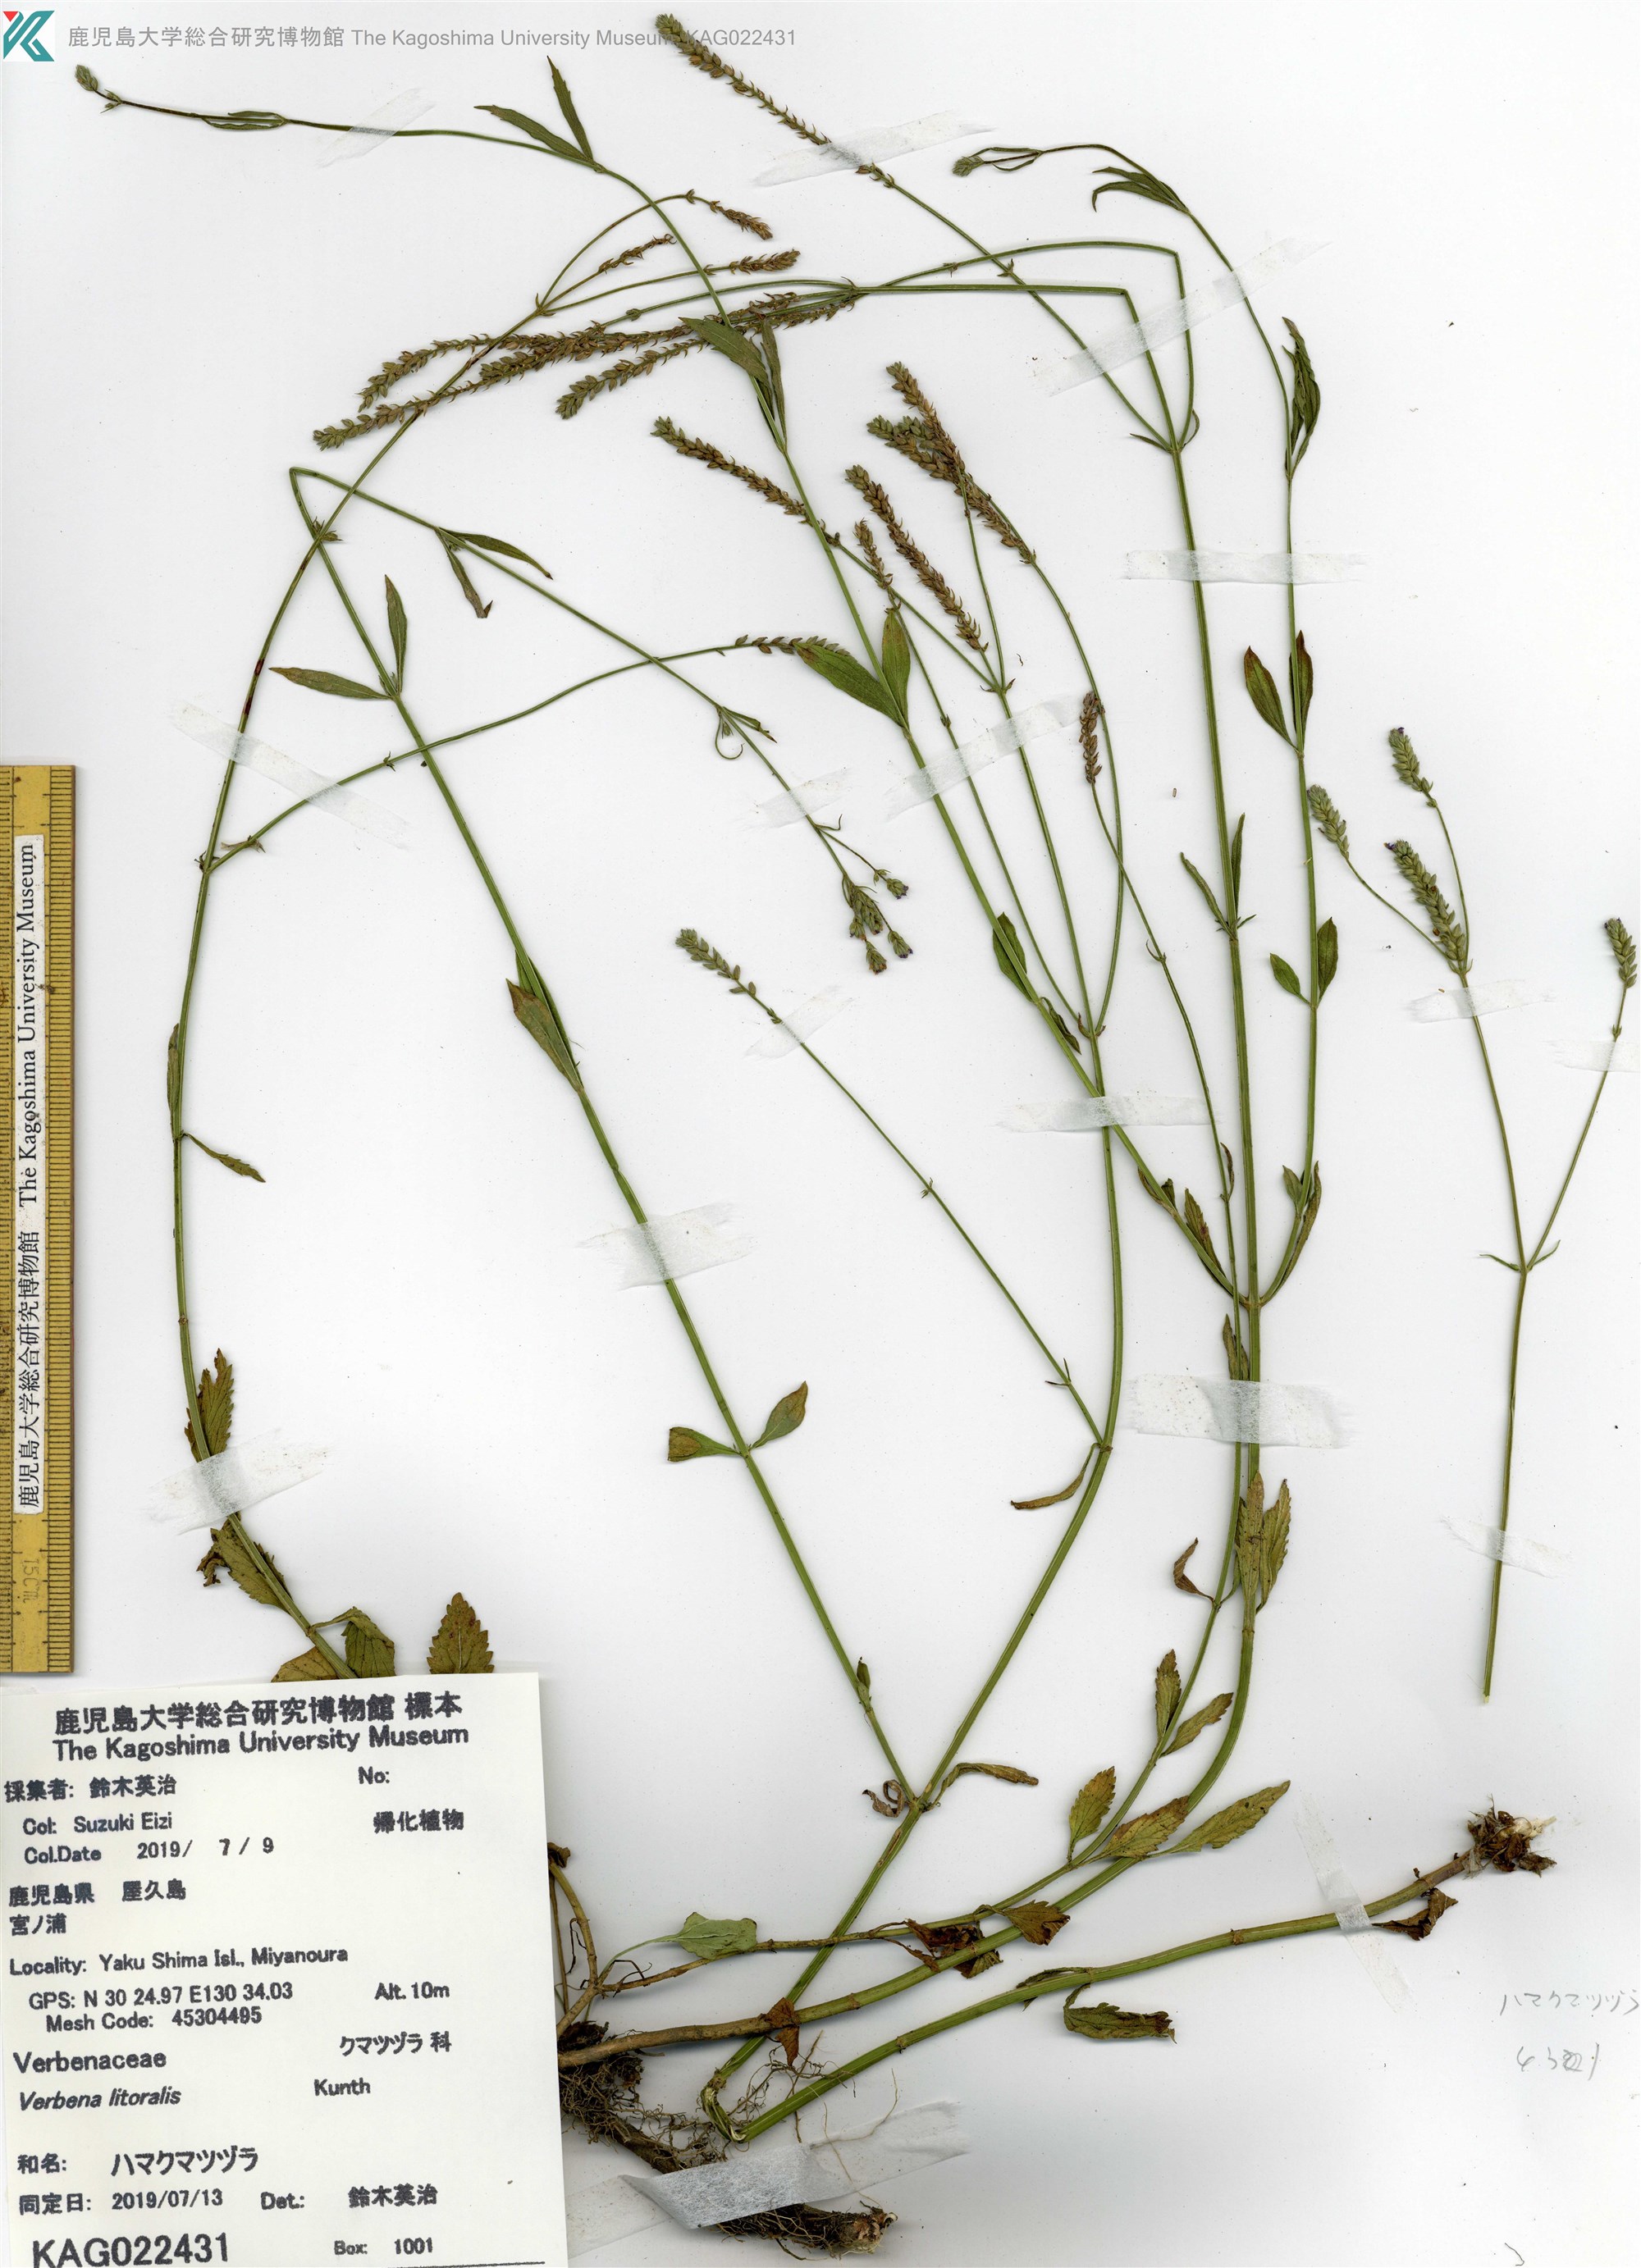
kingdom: Plantae
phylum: Tracheophyta
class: Magnoliopsida
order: Lamiales
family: Verbenaceae
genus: Verbena
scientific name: Verbena litoralis
